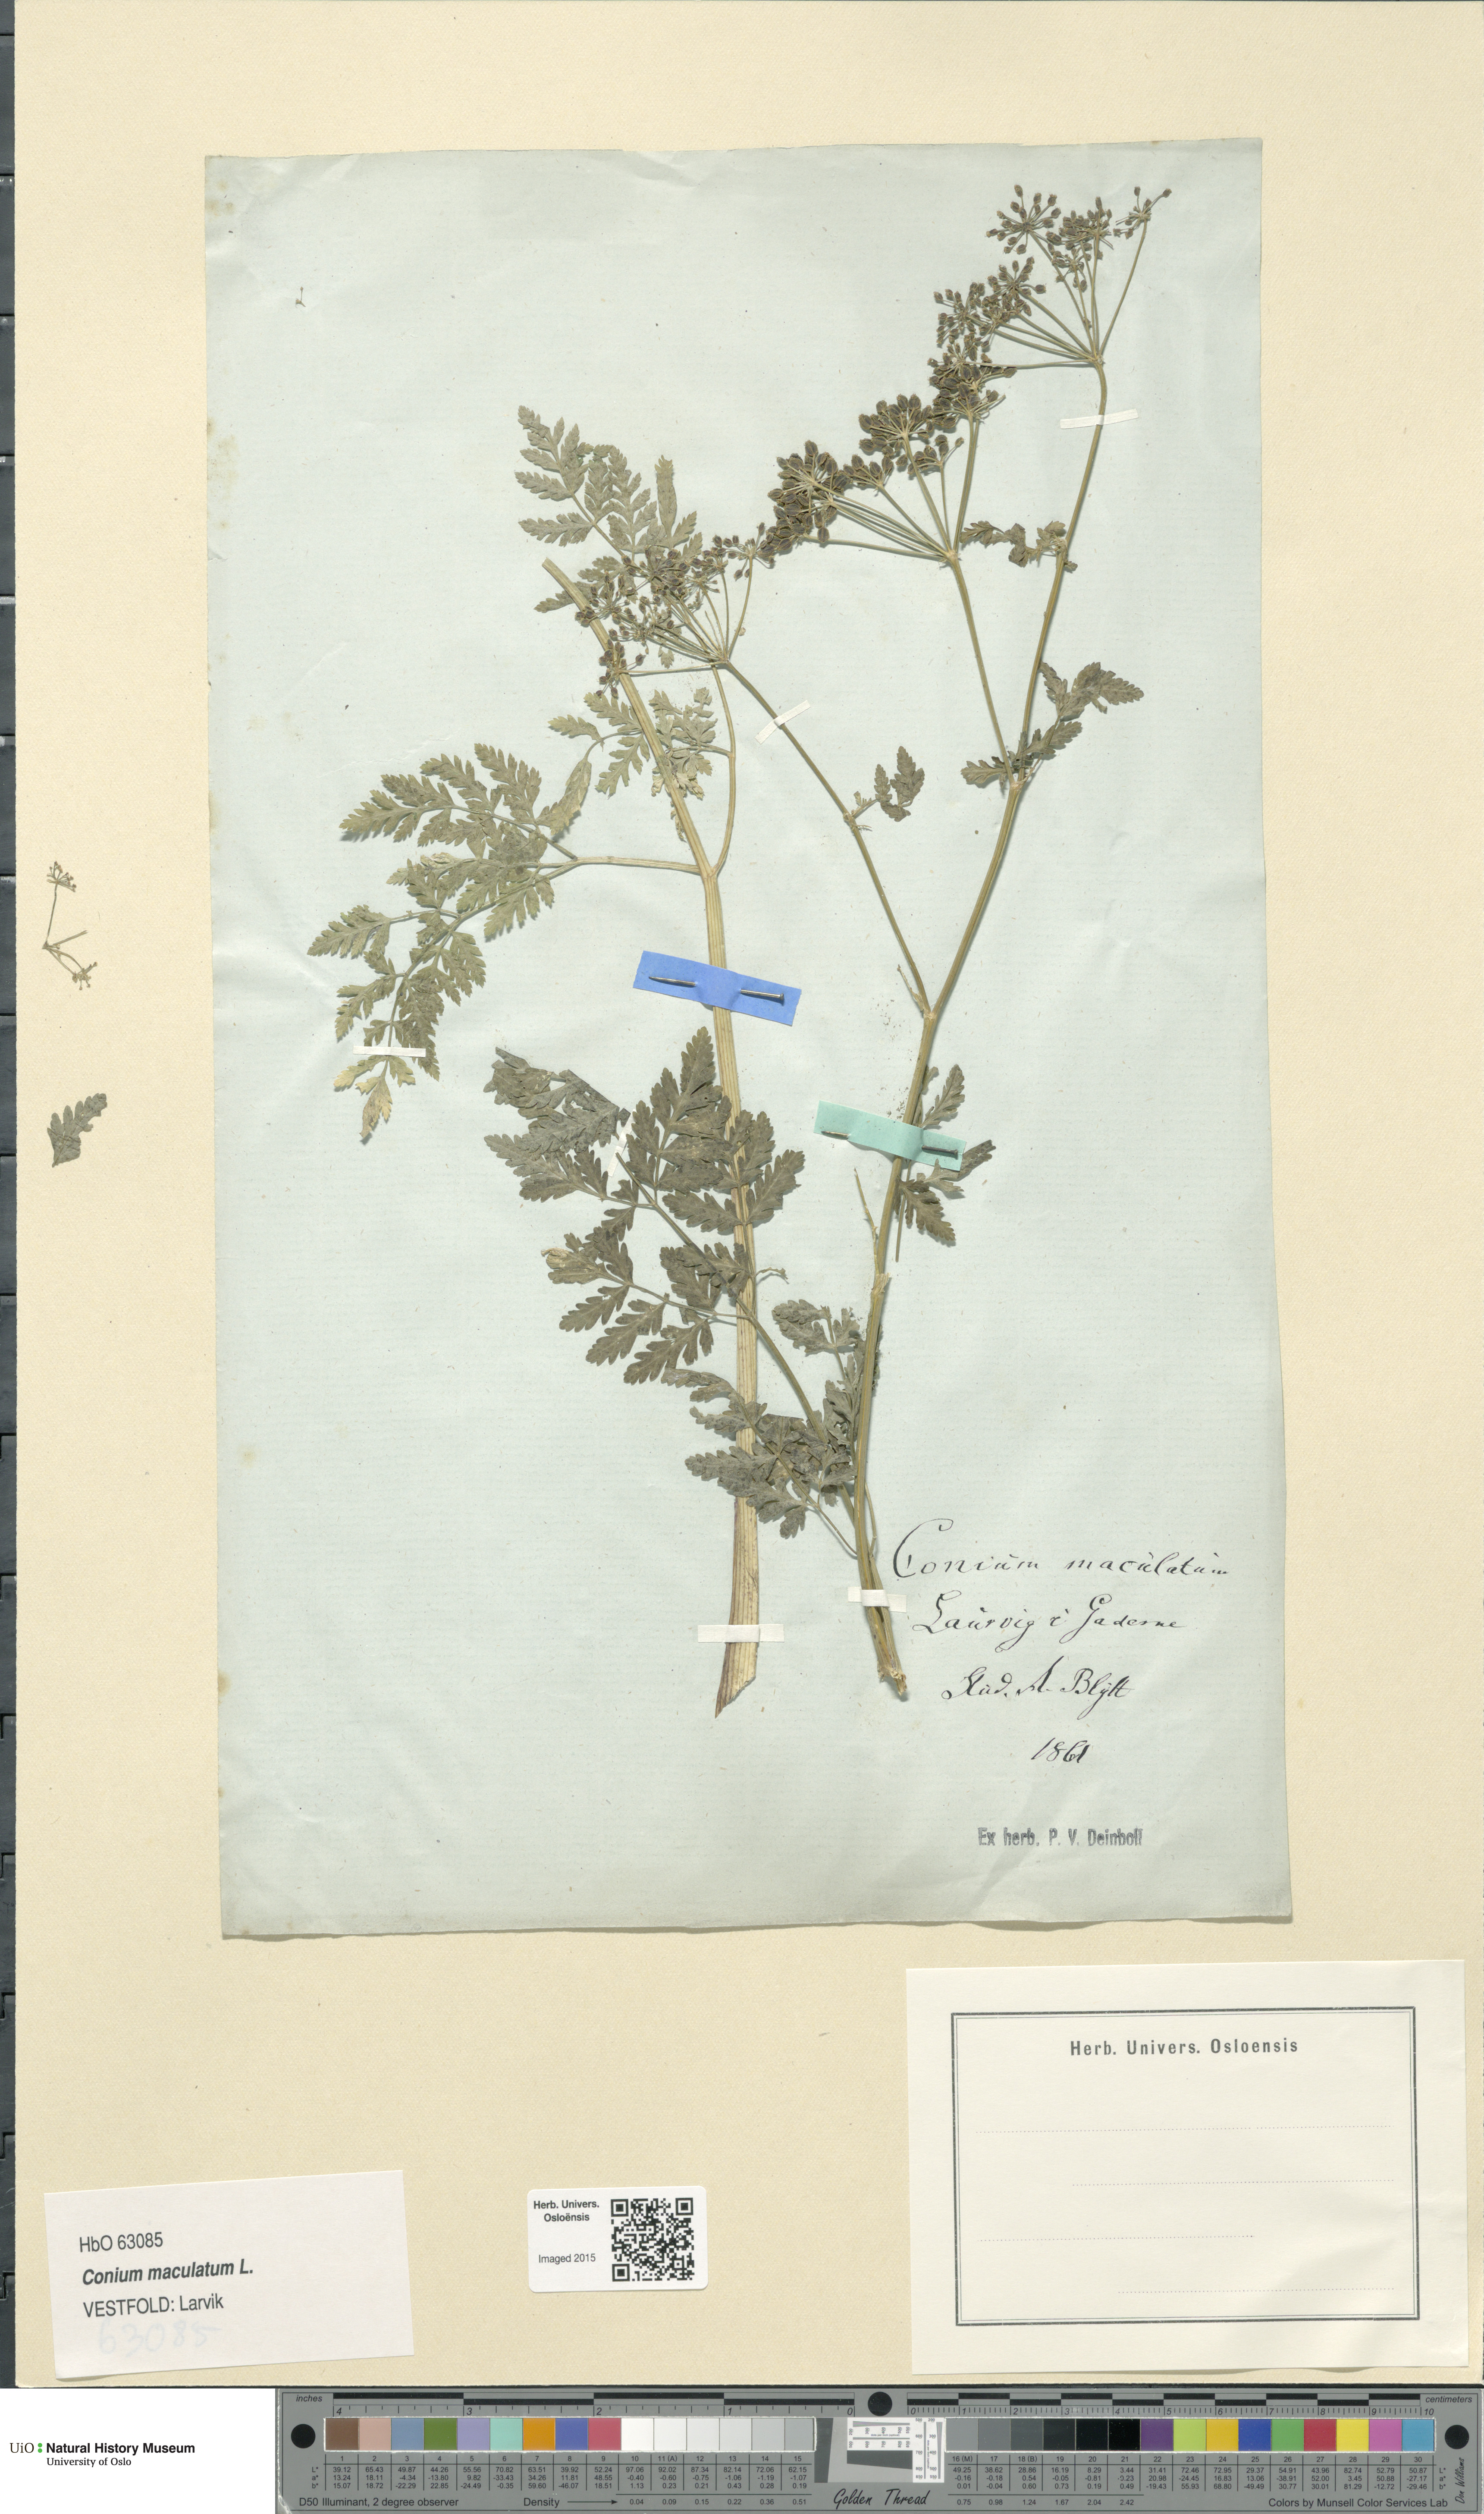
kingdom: Plantae
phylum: Tracheophyta
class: Magnoliopsida
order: Apiales
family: Apiaceae
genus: Conium
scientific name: Conium maculatum
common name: Hemlock
